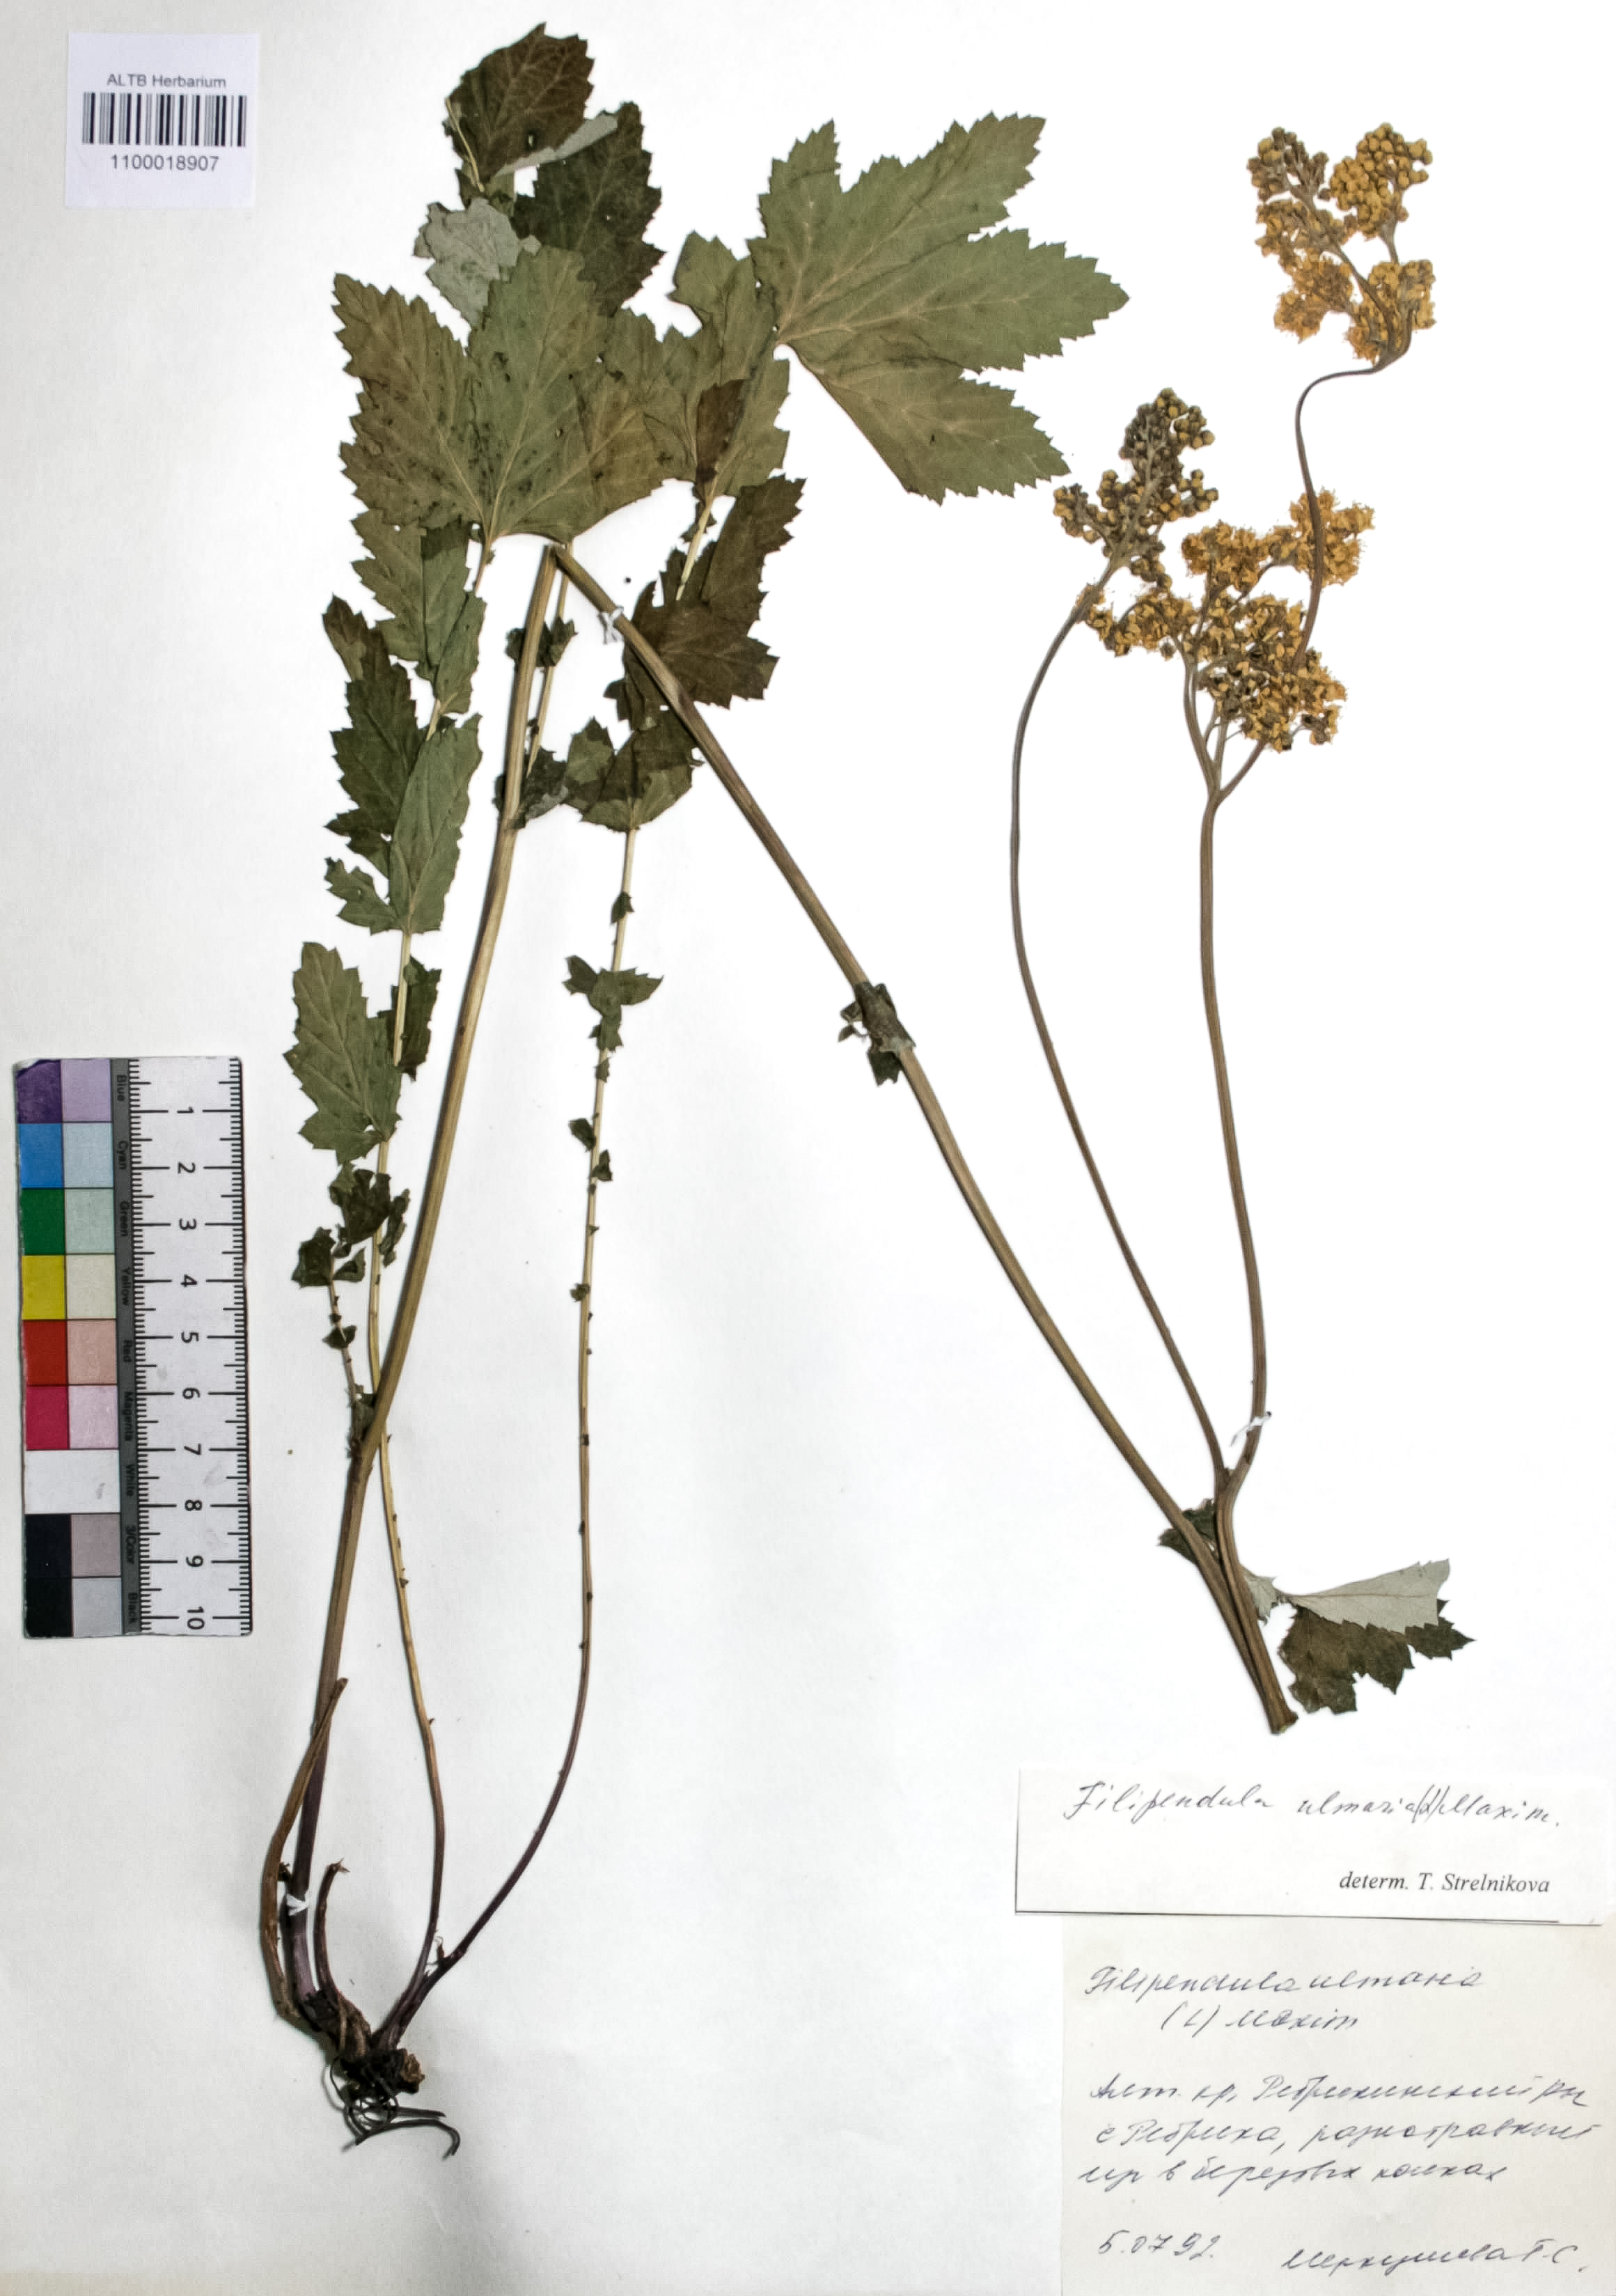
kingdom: Plantae
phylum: Tracheophyta
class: Magnoliopsida
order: Rosales
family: Rosaceae
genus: Filipendula
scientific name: Filipendula ulmaria
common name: Meadowsweet
